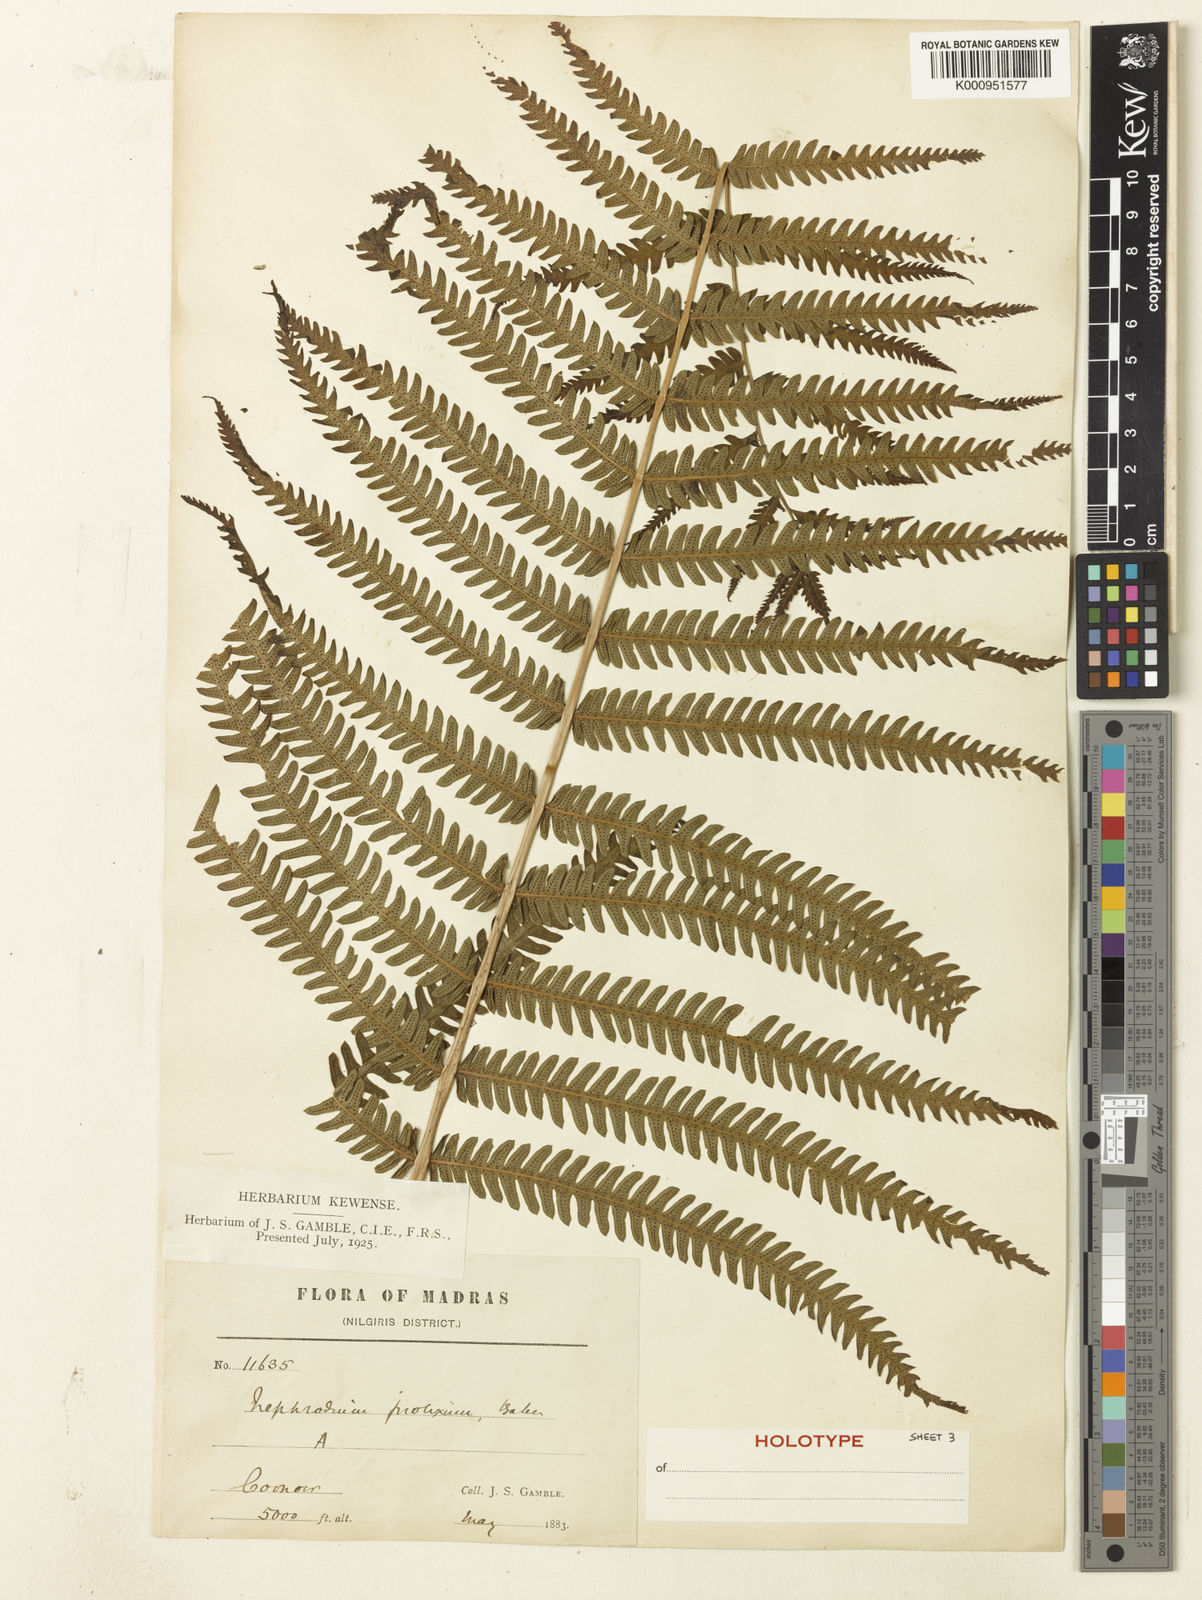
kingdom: Plantae
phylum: Tracheophyta
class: Polypodiopsida
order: Polypodiales
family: Thelypteridaceae
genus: Pseudocyclosorus
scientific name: Pseudocyclosorus tylodes
